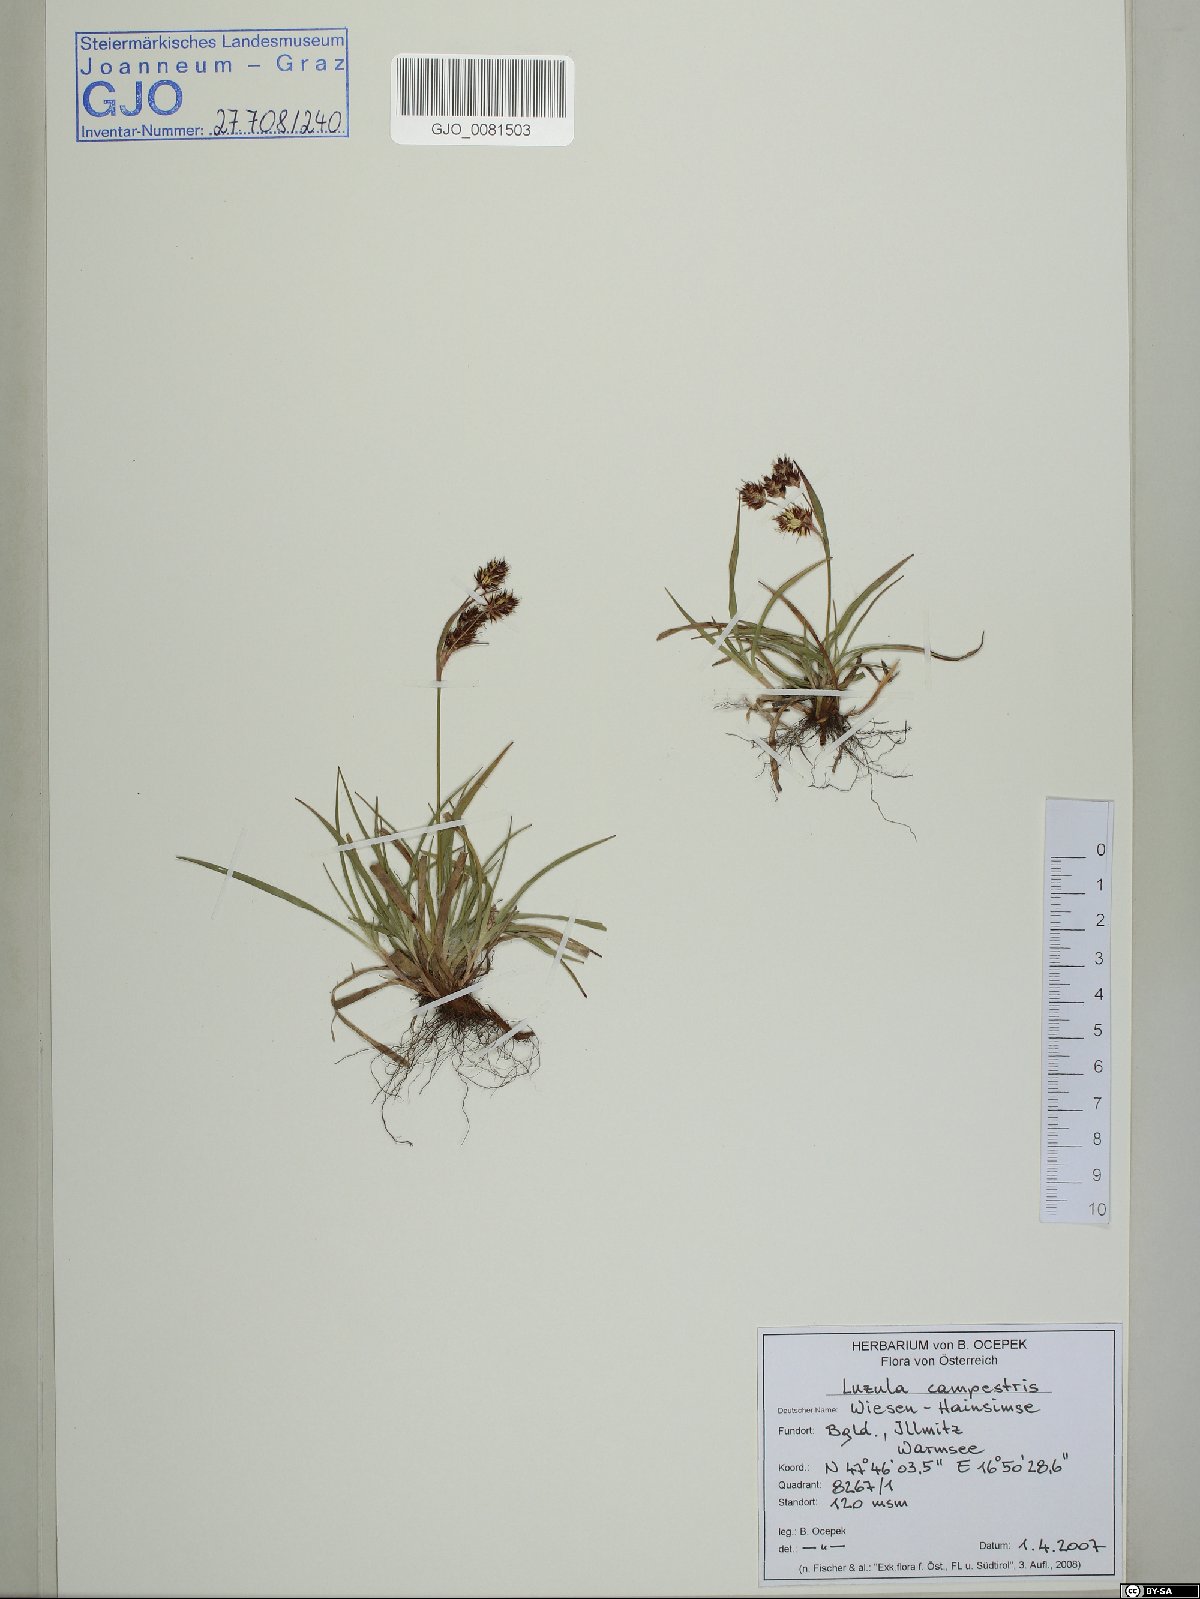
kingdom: Plantae
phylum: Tracheophyta
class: Liliopsida
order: Poales
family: Juncaceae
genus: Luzula
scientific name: Luzula campestris
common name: Field wood-rush
